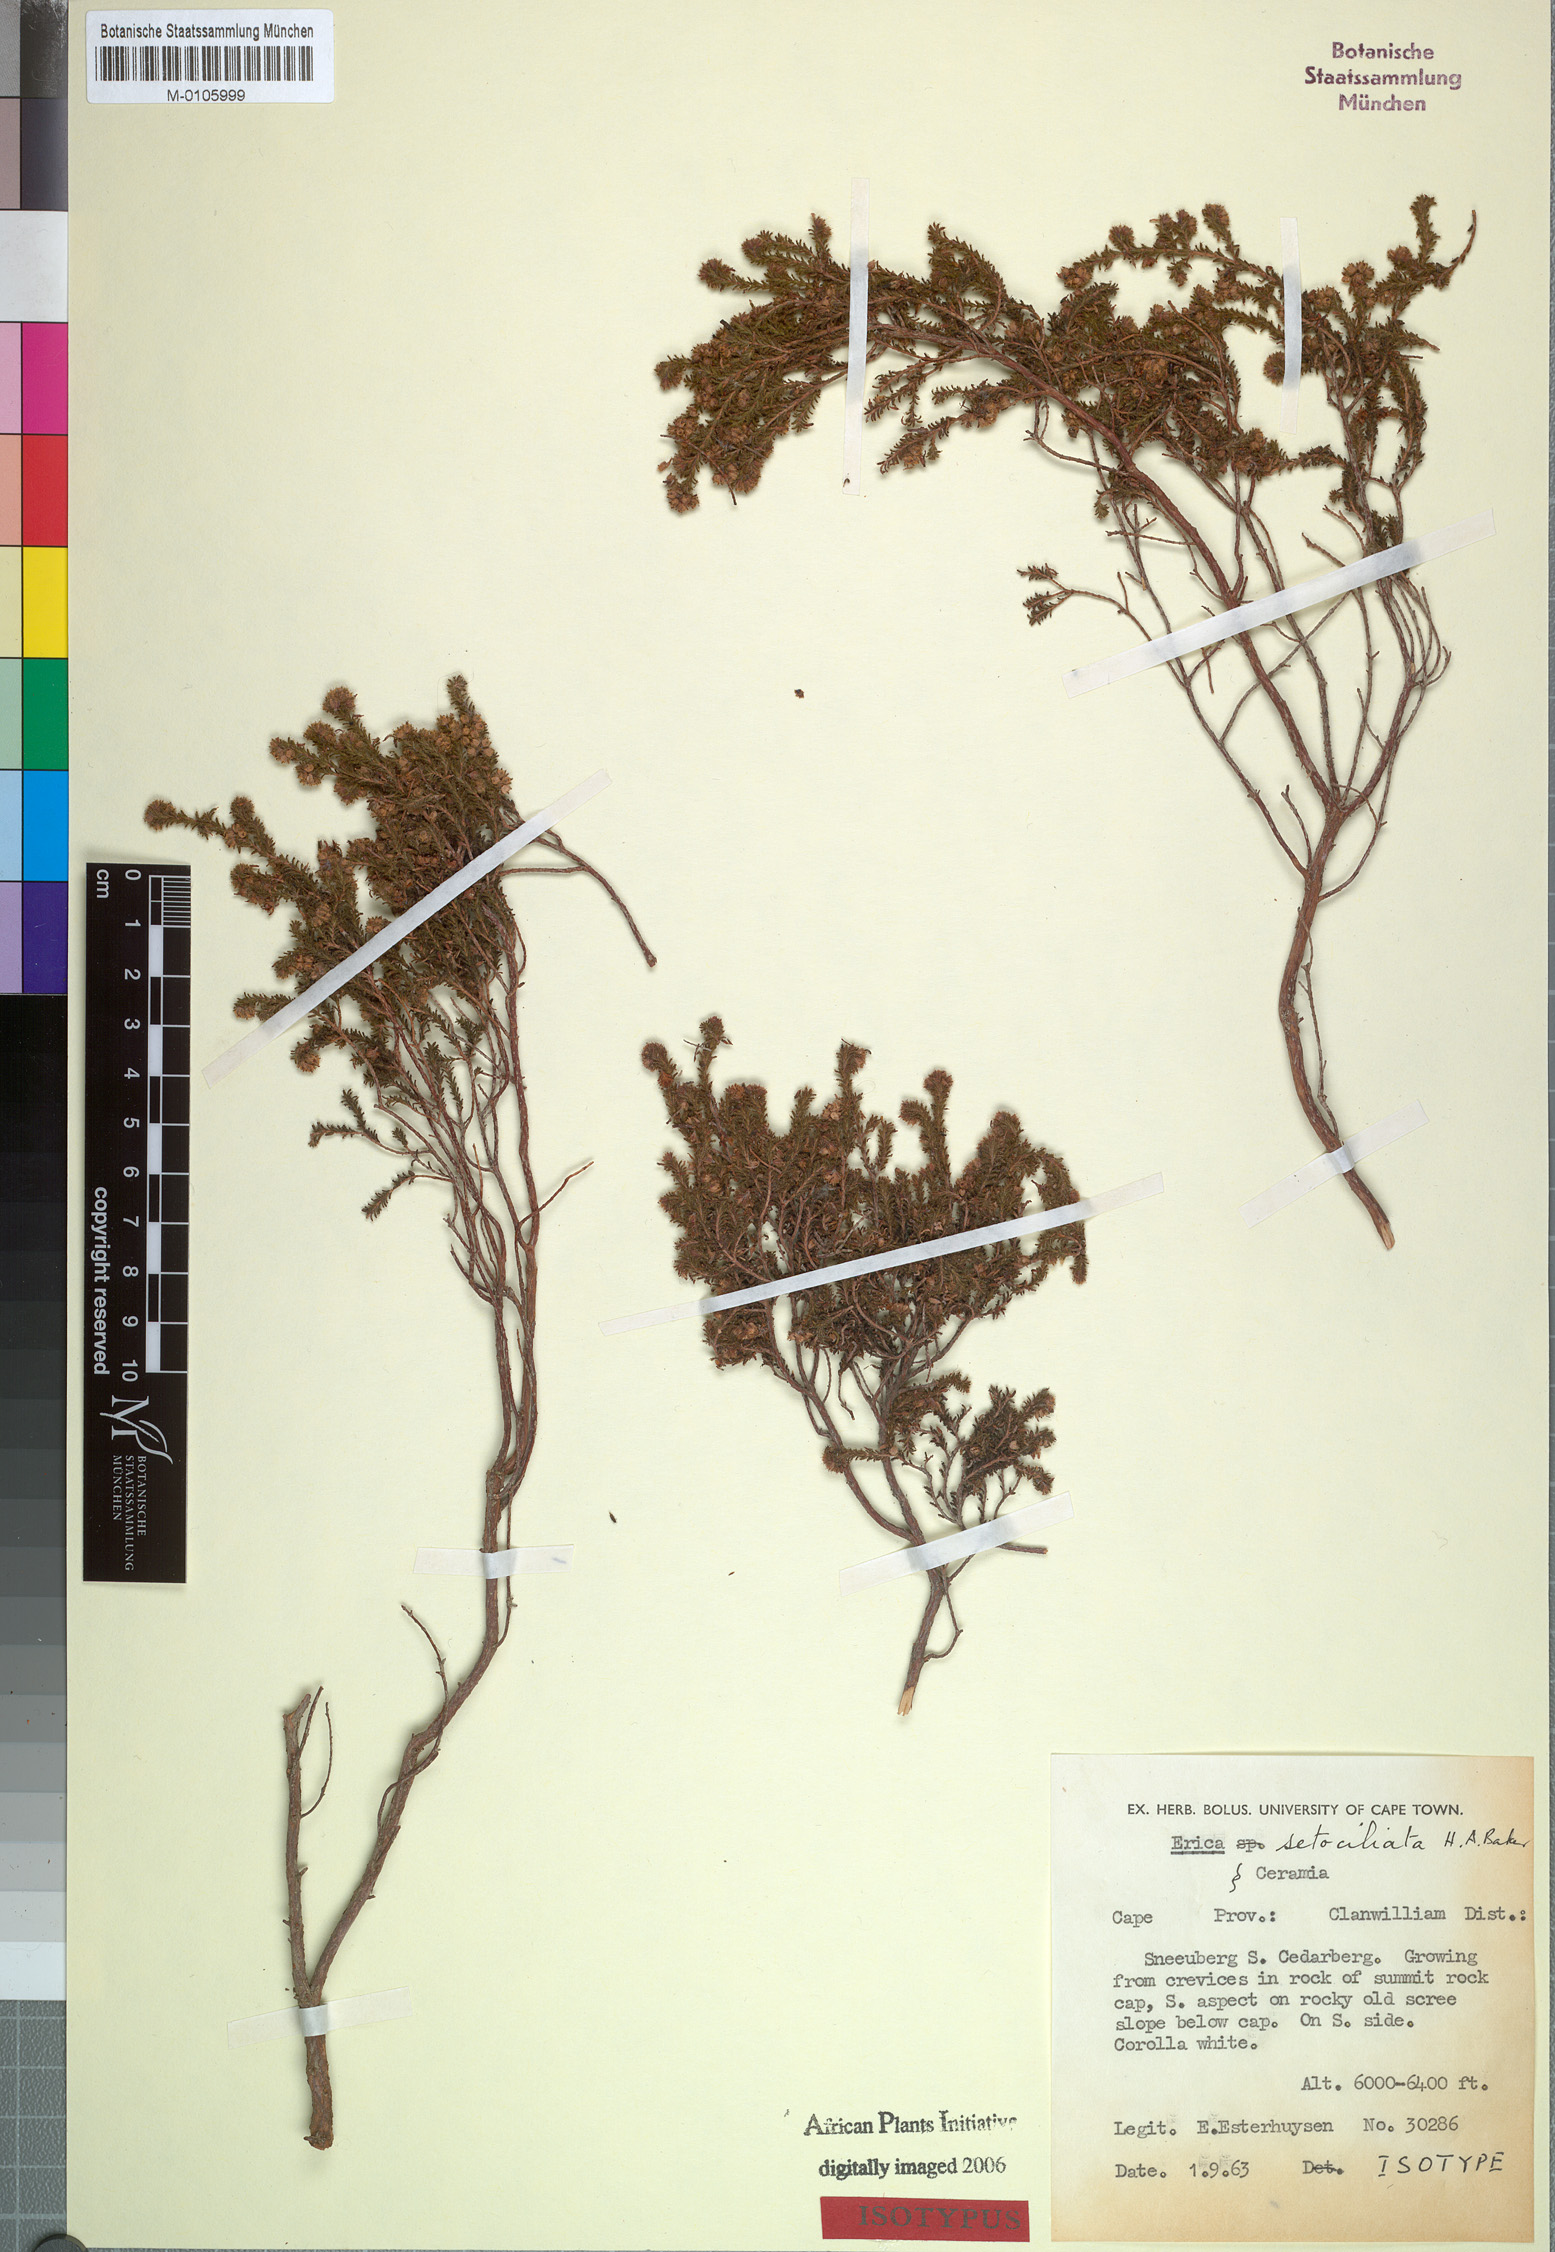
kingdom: Plantae
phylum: Tracheophyta
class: Magnoliopsida
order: Ericales
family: Ericaceae
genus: Erica
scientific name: Erica setociliata
